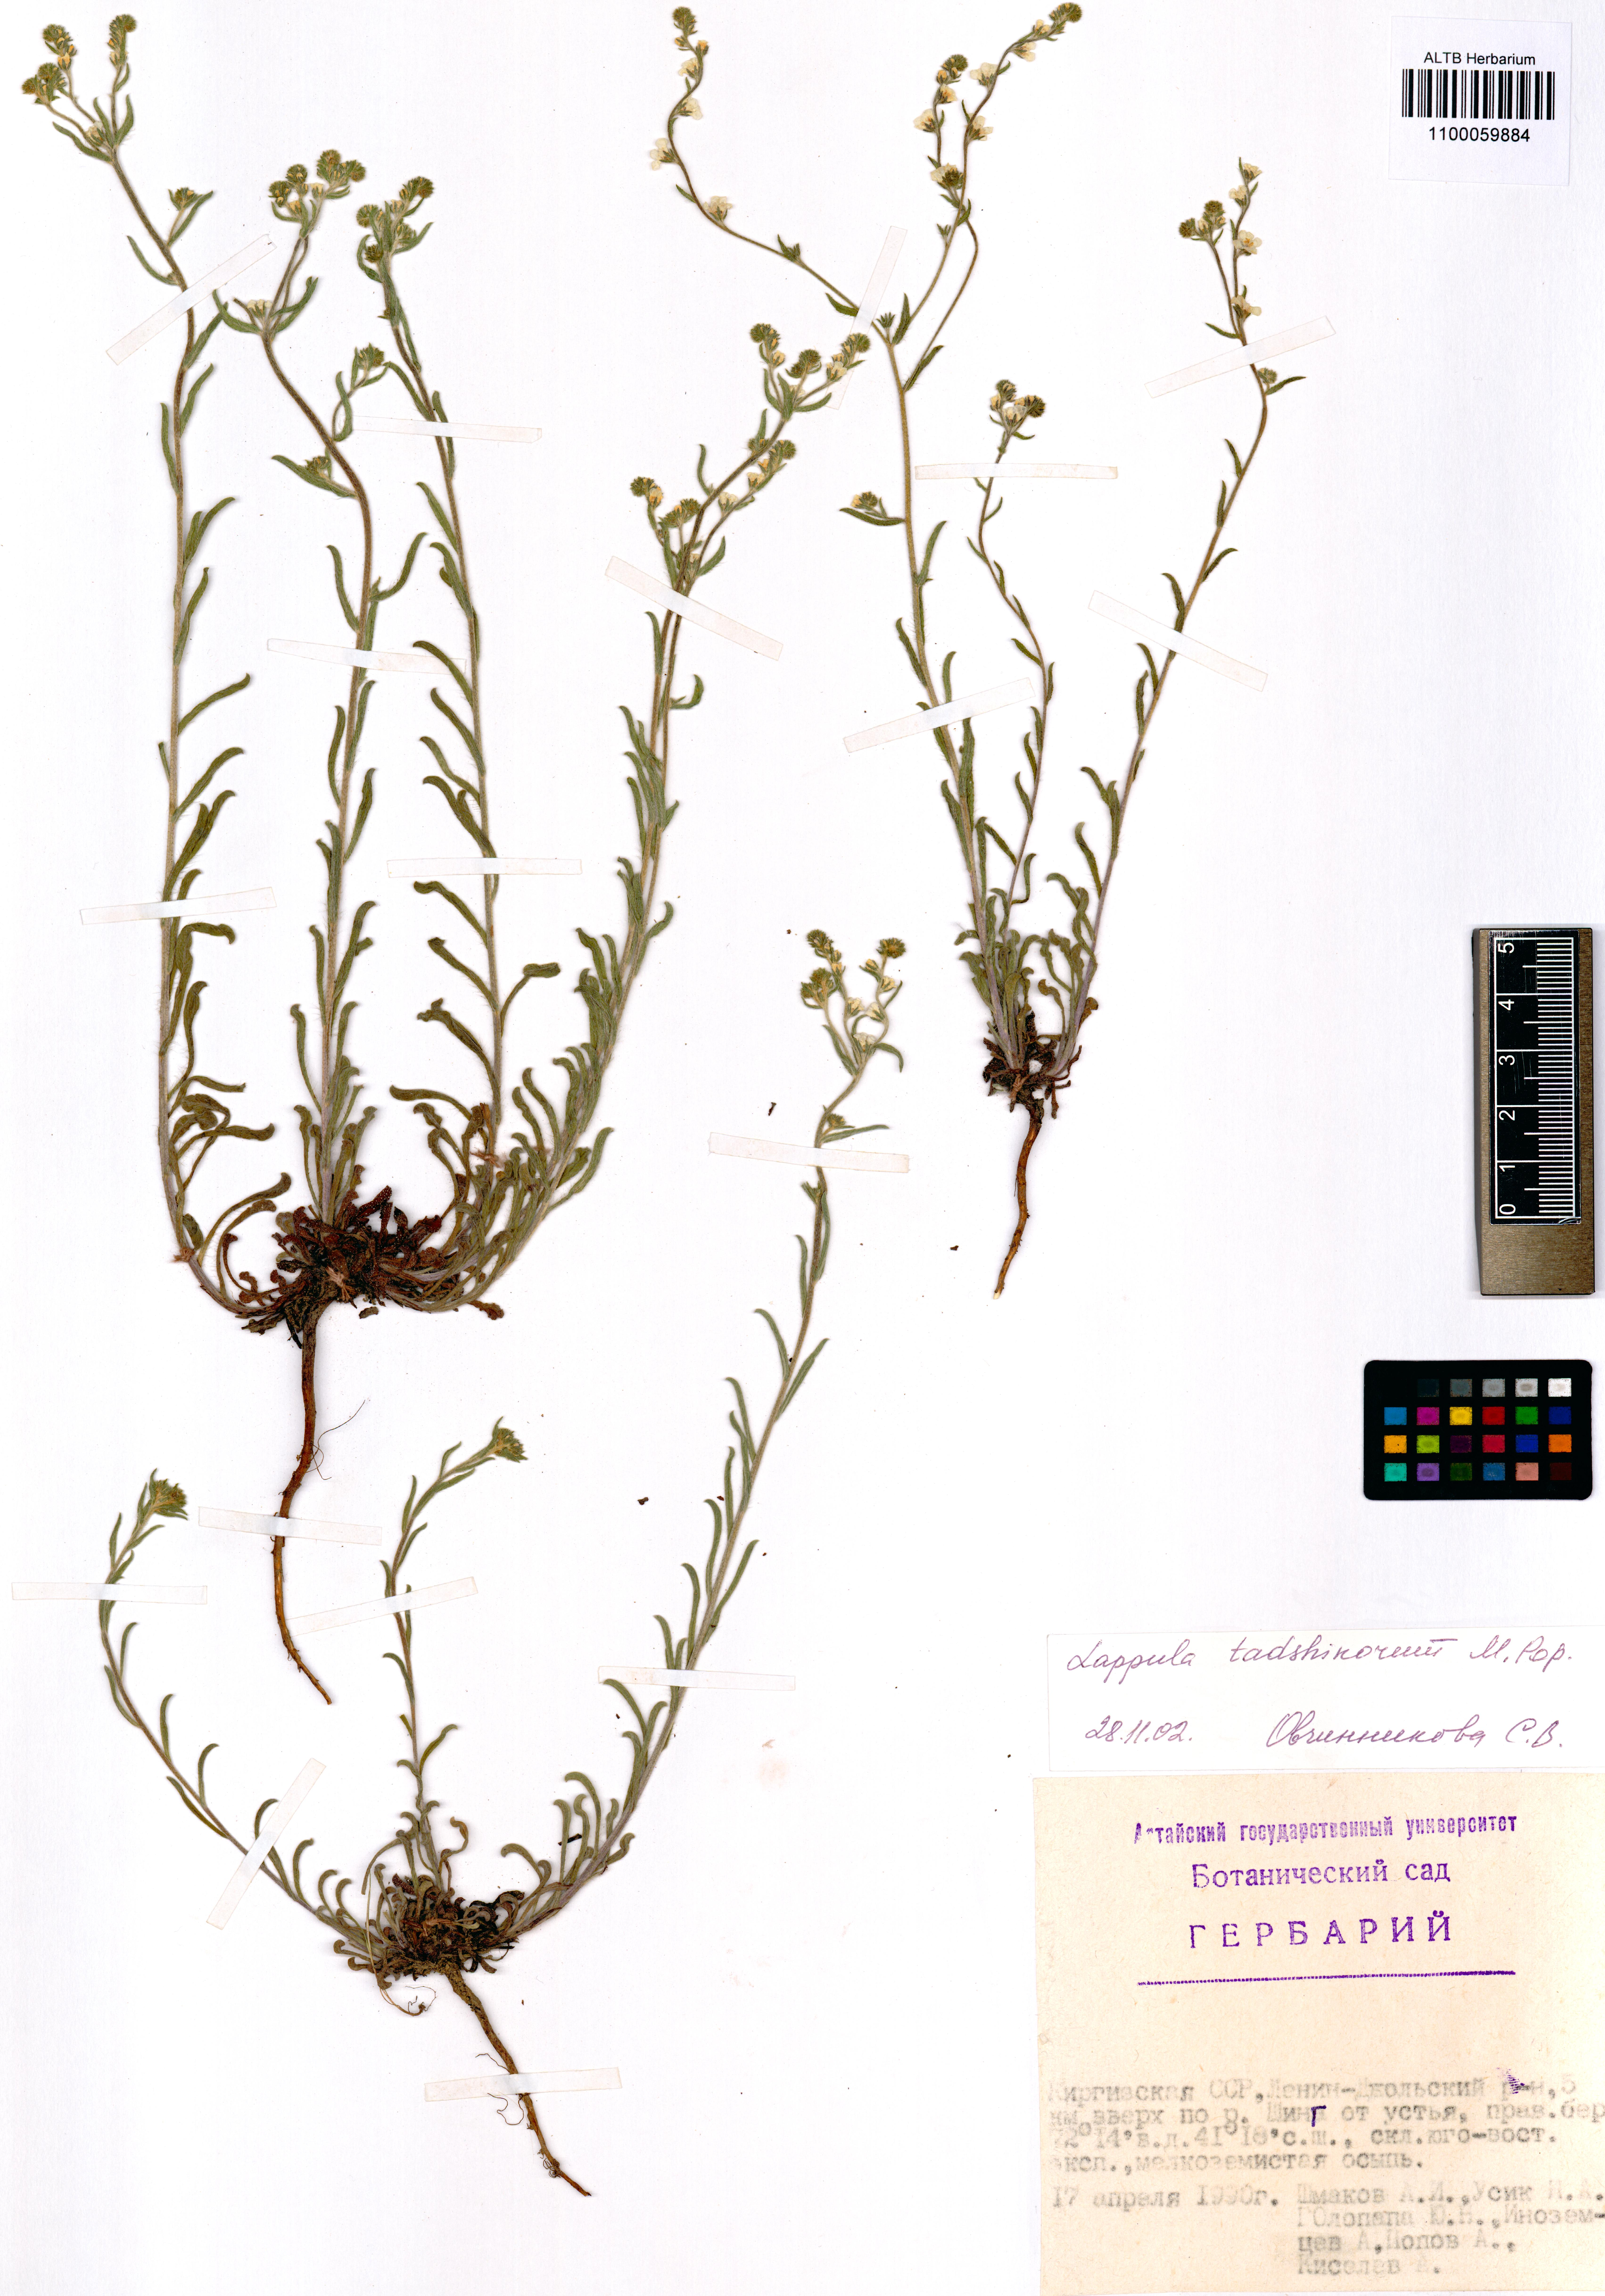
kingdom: Plantae
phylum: Tracheophyta
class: Magnoliopsida
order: Boraginales
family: Boraginaceae
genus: Lappula
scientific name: Lappula tadshikorum
